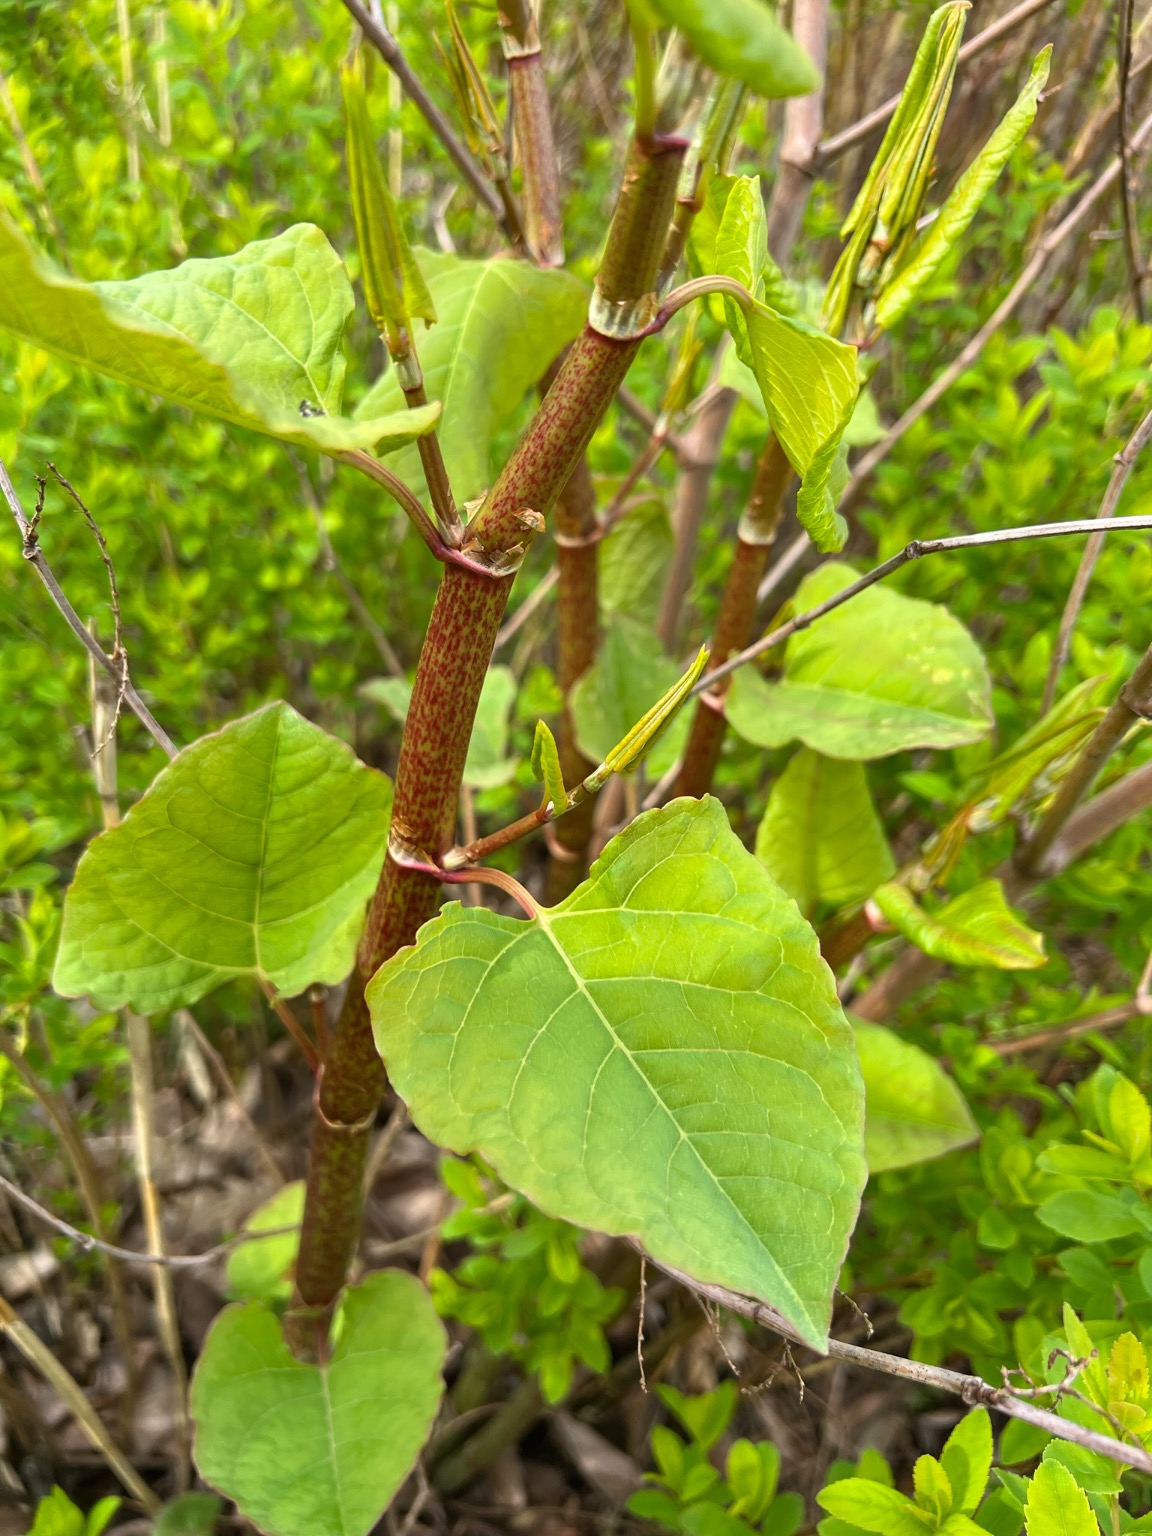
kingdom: Plantae
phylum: Tracheophyta
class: Magnoliopsida
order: Caryophyllales
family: Polygonaceae
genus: Reynoutria
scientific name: Reynoutria japonica
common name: Japan-pileurt
